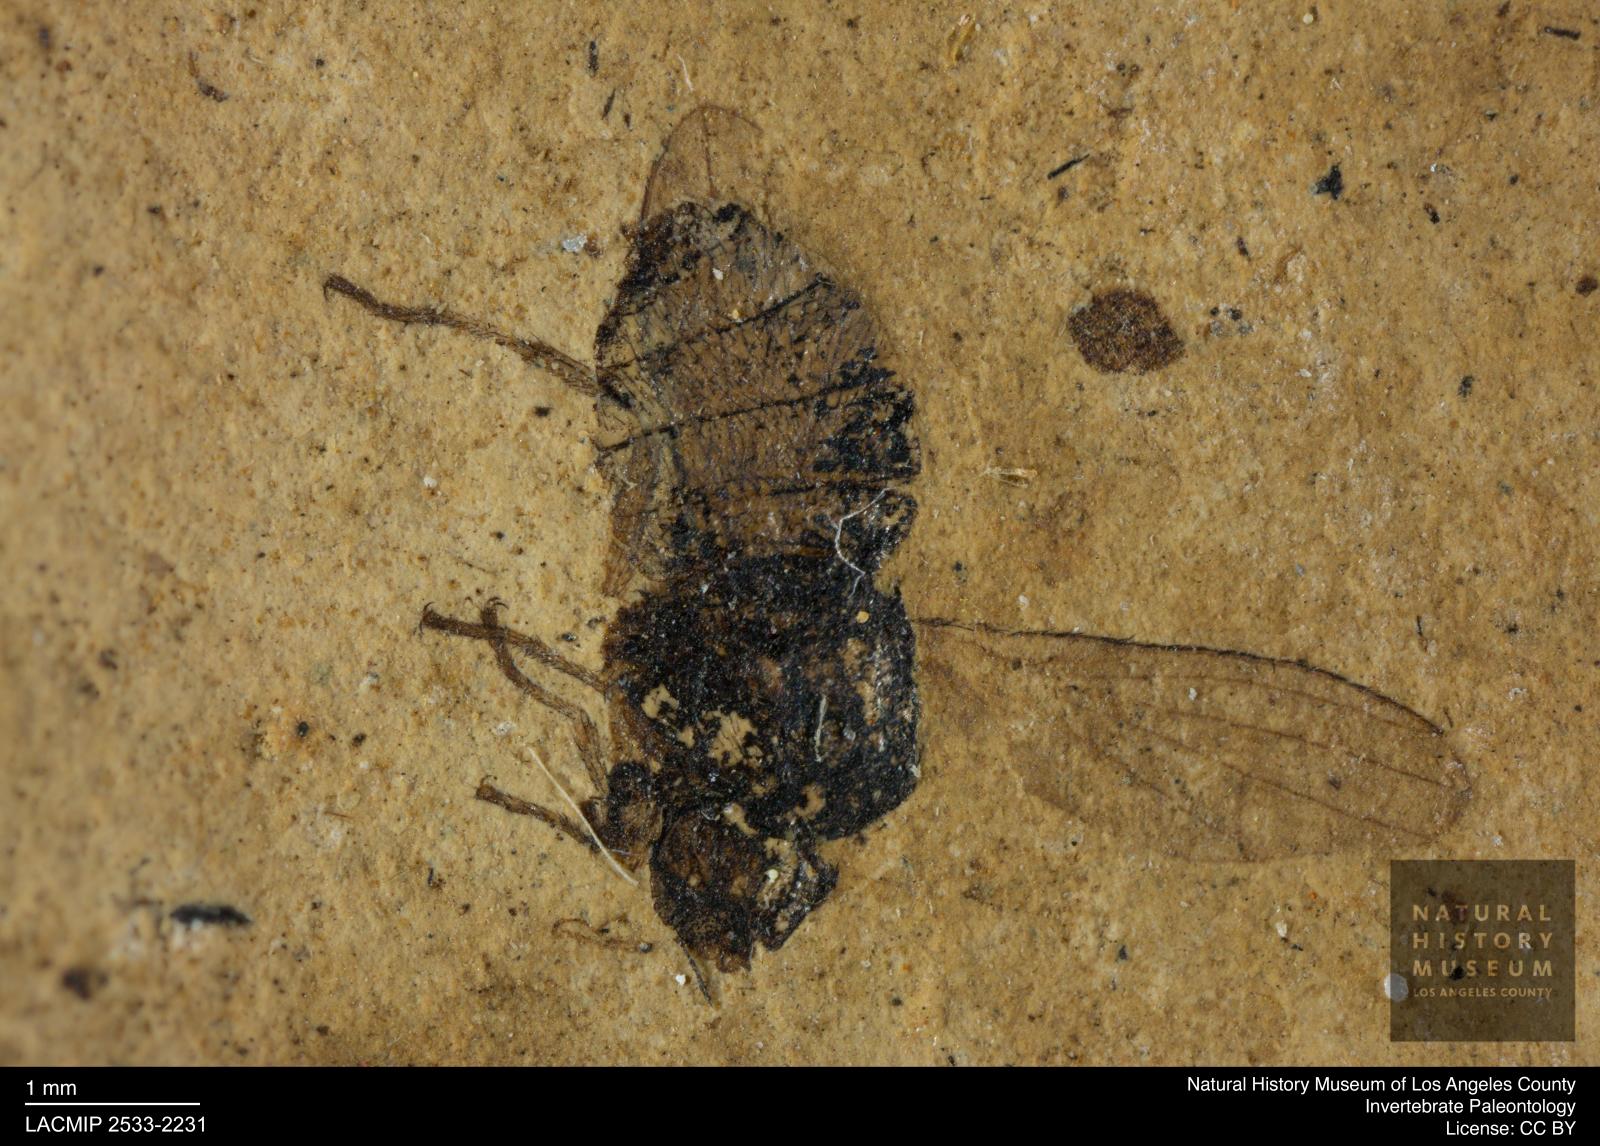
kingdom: Animalia
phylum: Arthropoda
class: Insecta
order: Diptera
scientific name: Diptera
